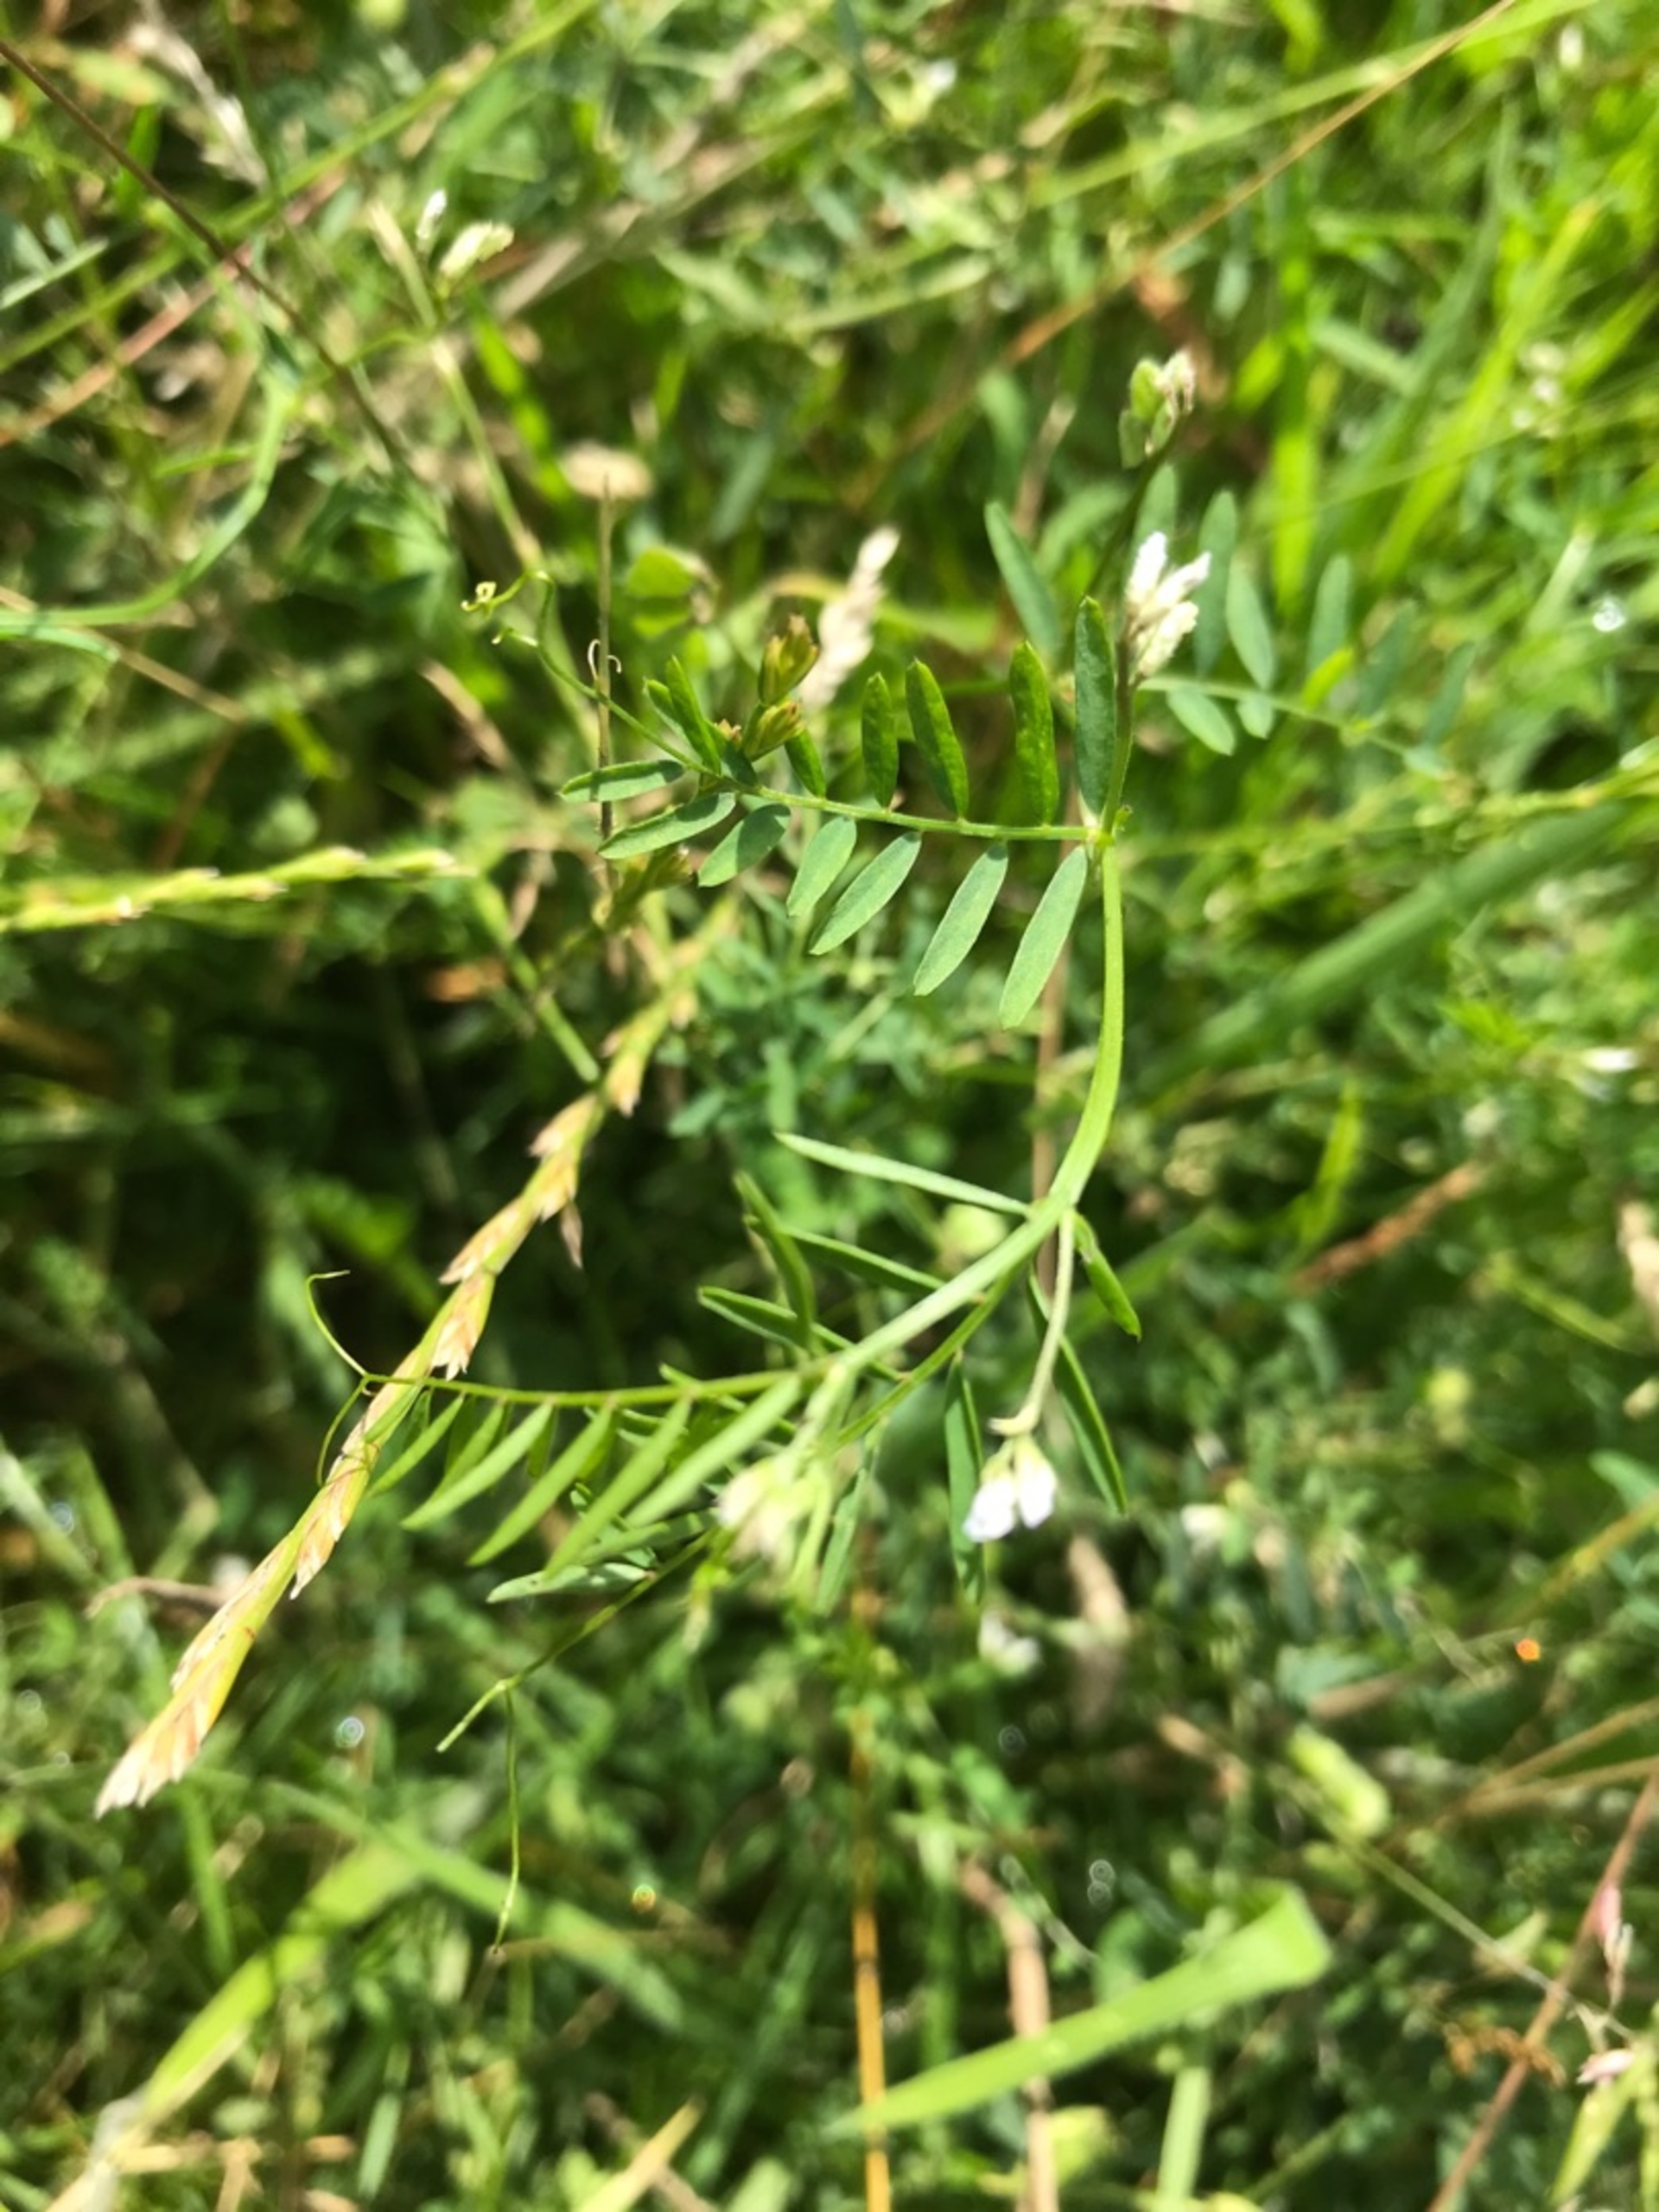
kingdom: Plantae
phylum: Tracheophyta
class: Magnoliopsida
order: Fabales
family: Fabaceae
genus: Vicia
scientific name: Vicia hirsuta
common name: Tofrøet vikke
